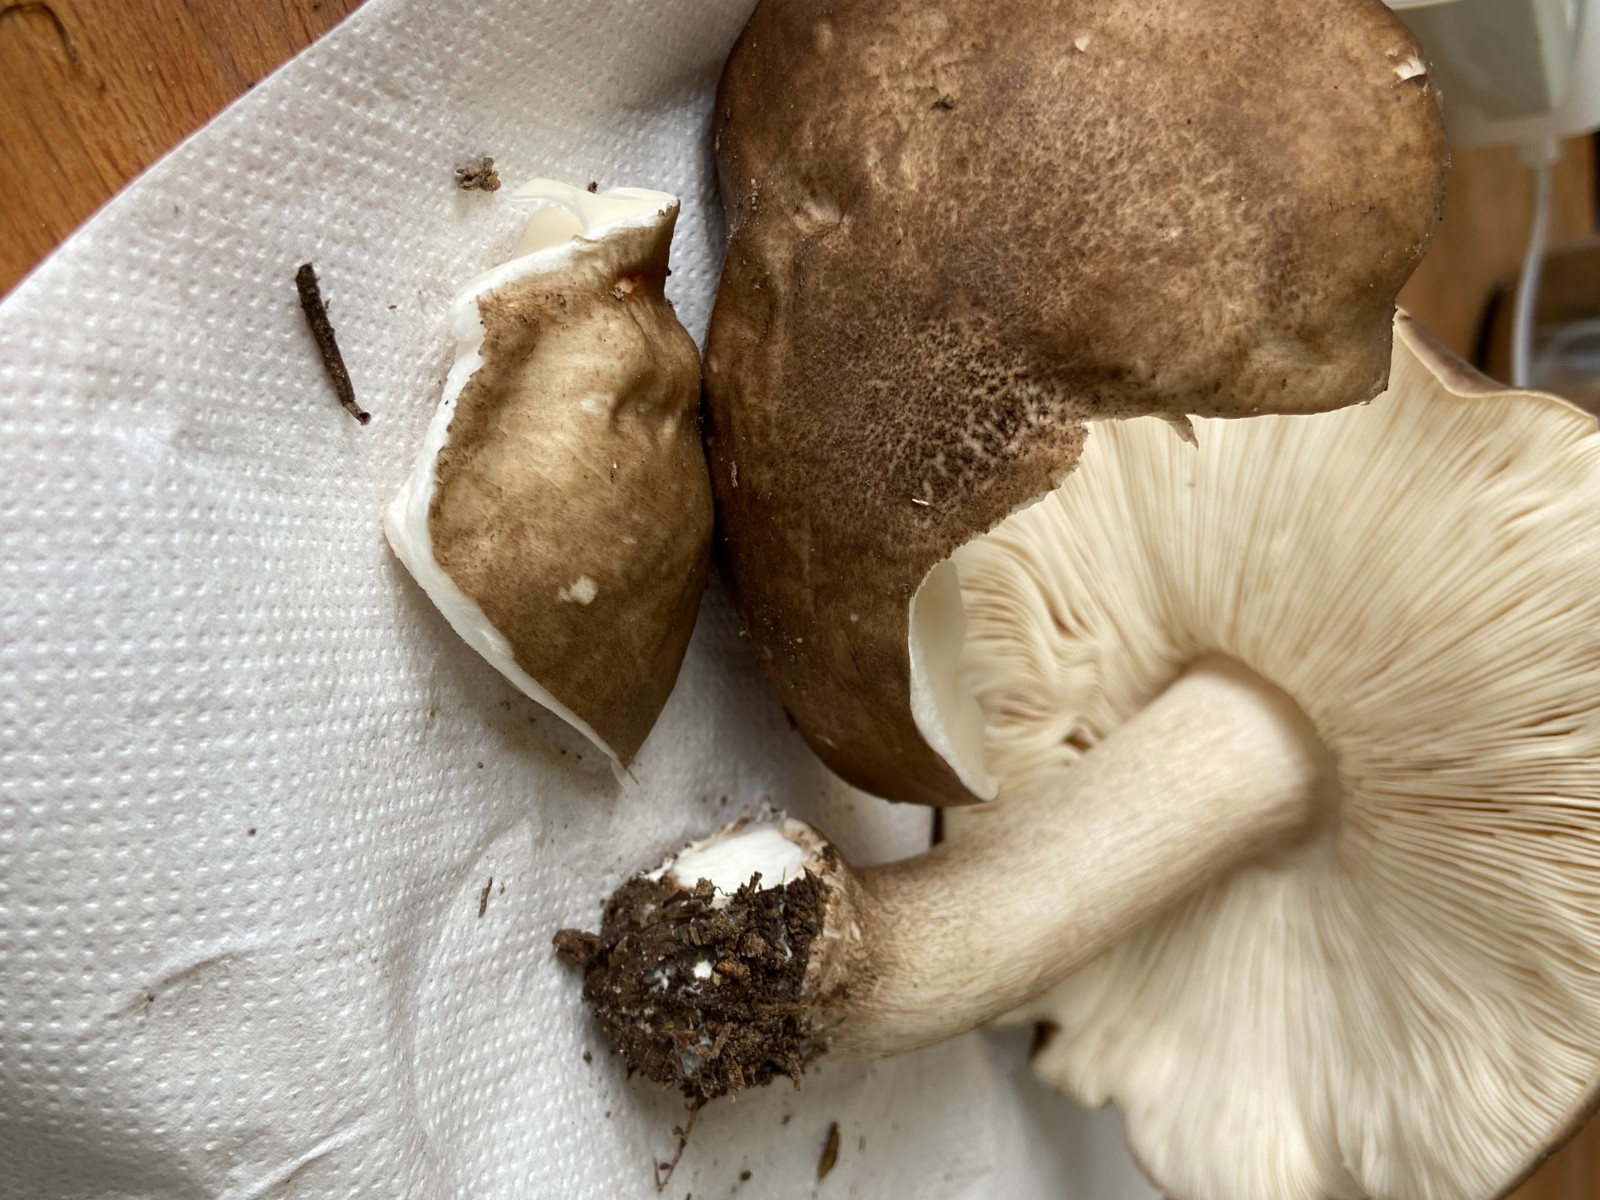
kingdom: Fungi
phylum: Basidiomycota
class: Agaricomycetes
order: Agaricales
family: Pluteaceae
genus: Pluteus
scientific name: Pluteus cervinus
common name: sodfarvet skærmhat
